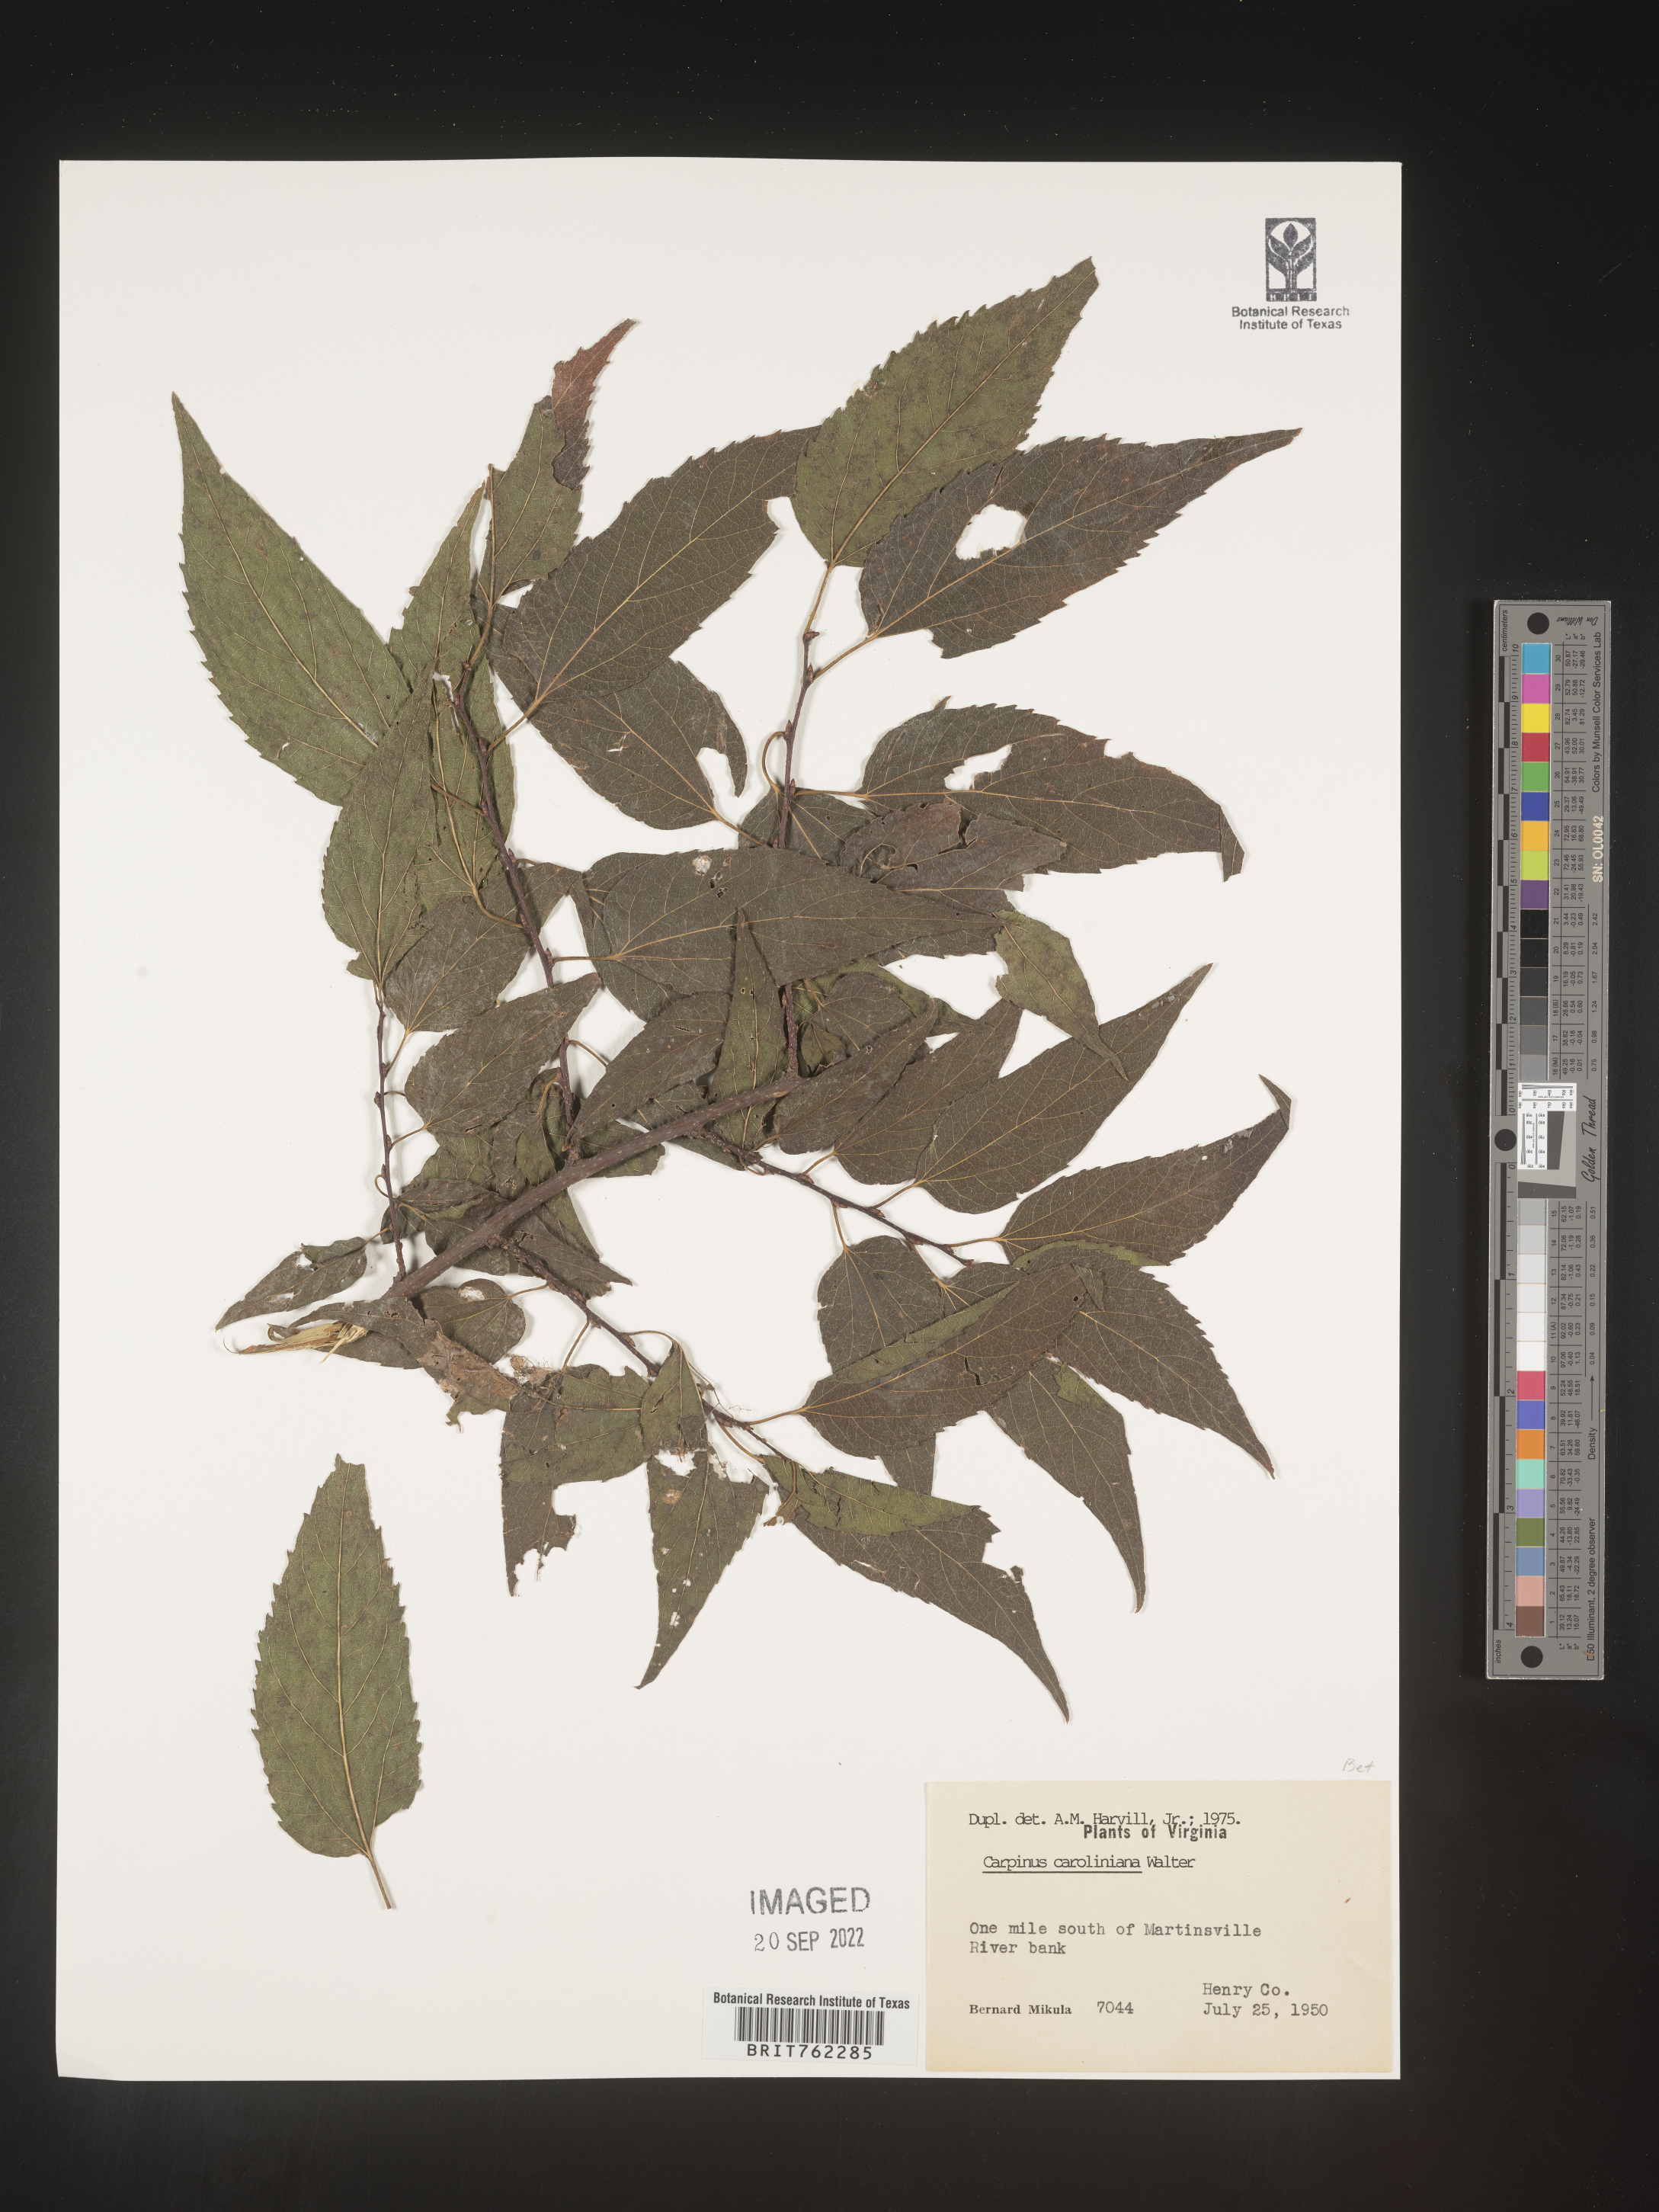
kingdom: Plantae
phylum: Tracheophyta
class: Magnoliopsida
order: Fagales
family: Betulaceae
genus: Carpinus
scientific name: Carpinus caroliniana
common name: American hornbeam
